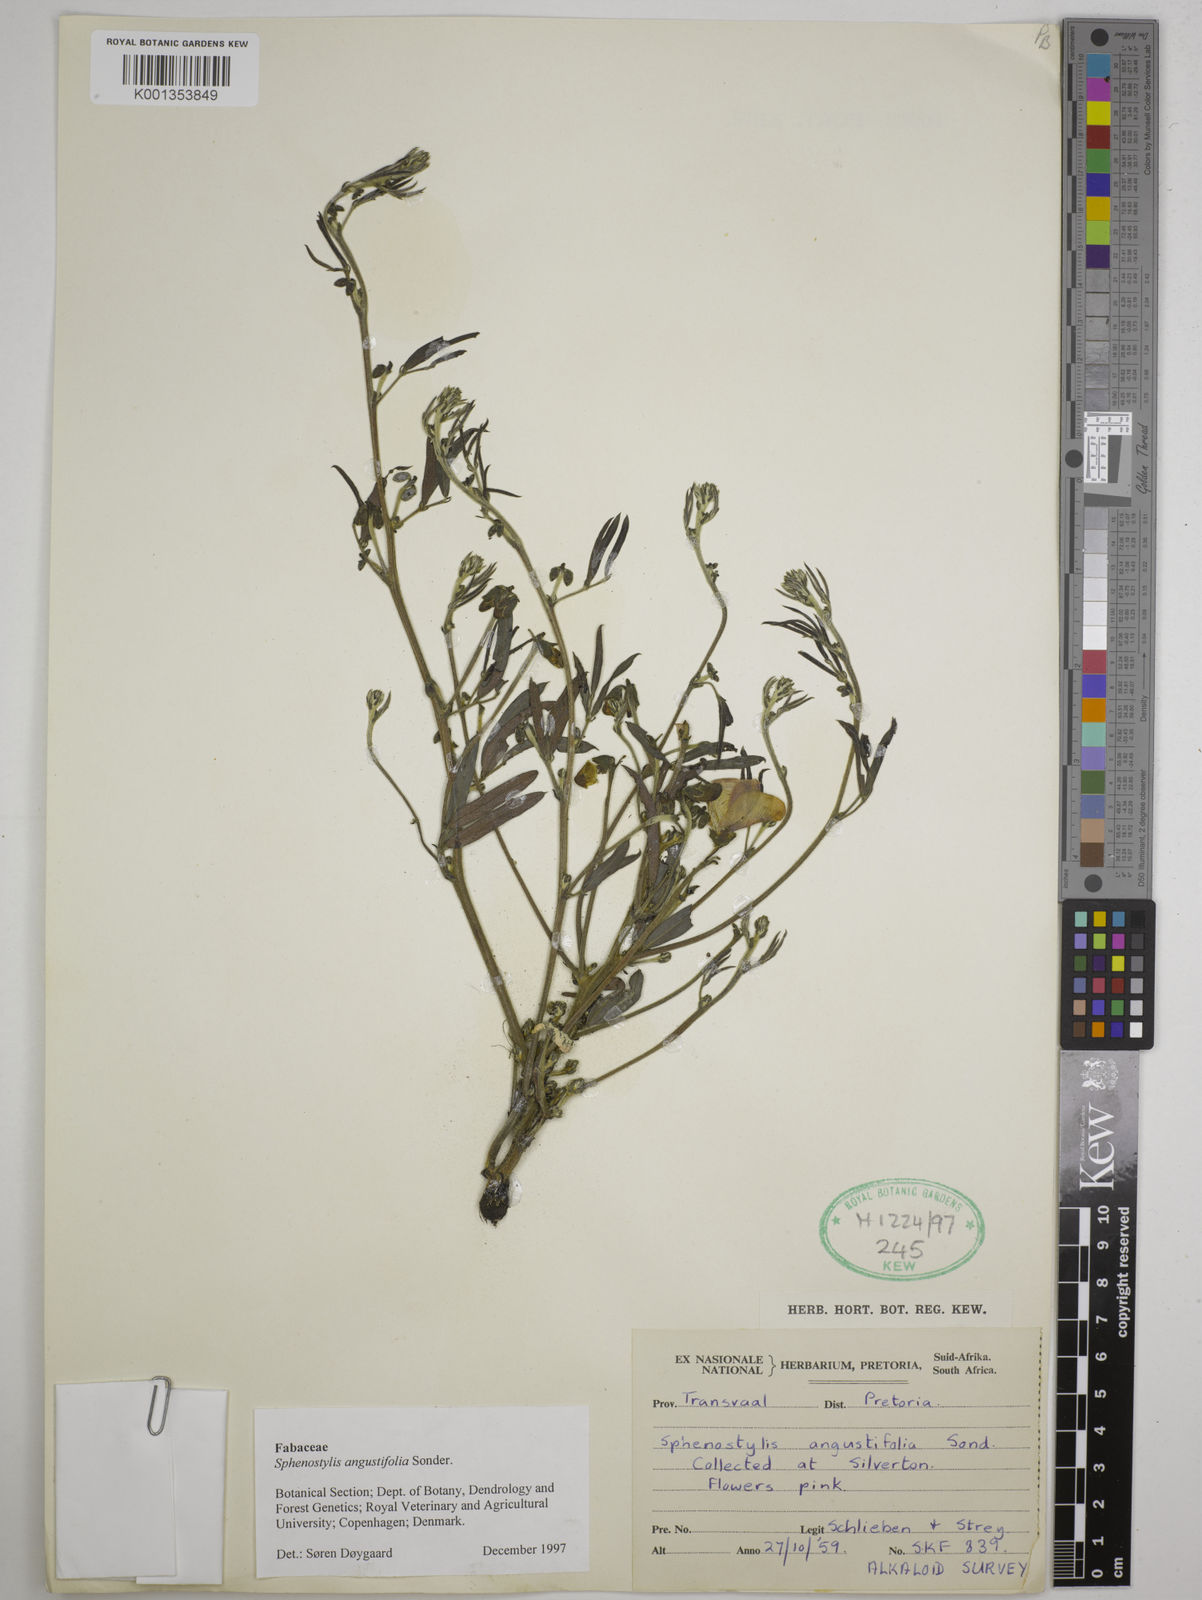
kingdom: Plantae
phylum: Tracheophyta
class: Magnoliopsida
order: Fabales
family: Fabaceae
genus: Sphenostylis
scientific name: Sphenostylis angustifolia
